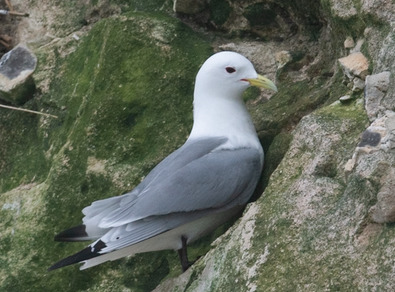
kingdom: Animalia
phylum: Chordata
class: Aves
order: Charadriiformes
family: Laridae
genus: Rissa
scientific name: Rissa tridactyla
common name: Ride
